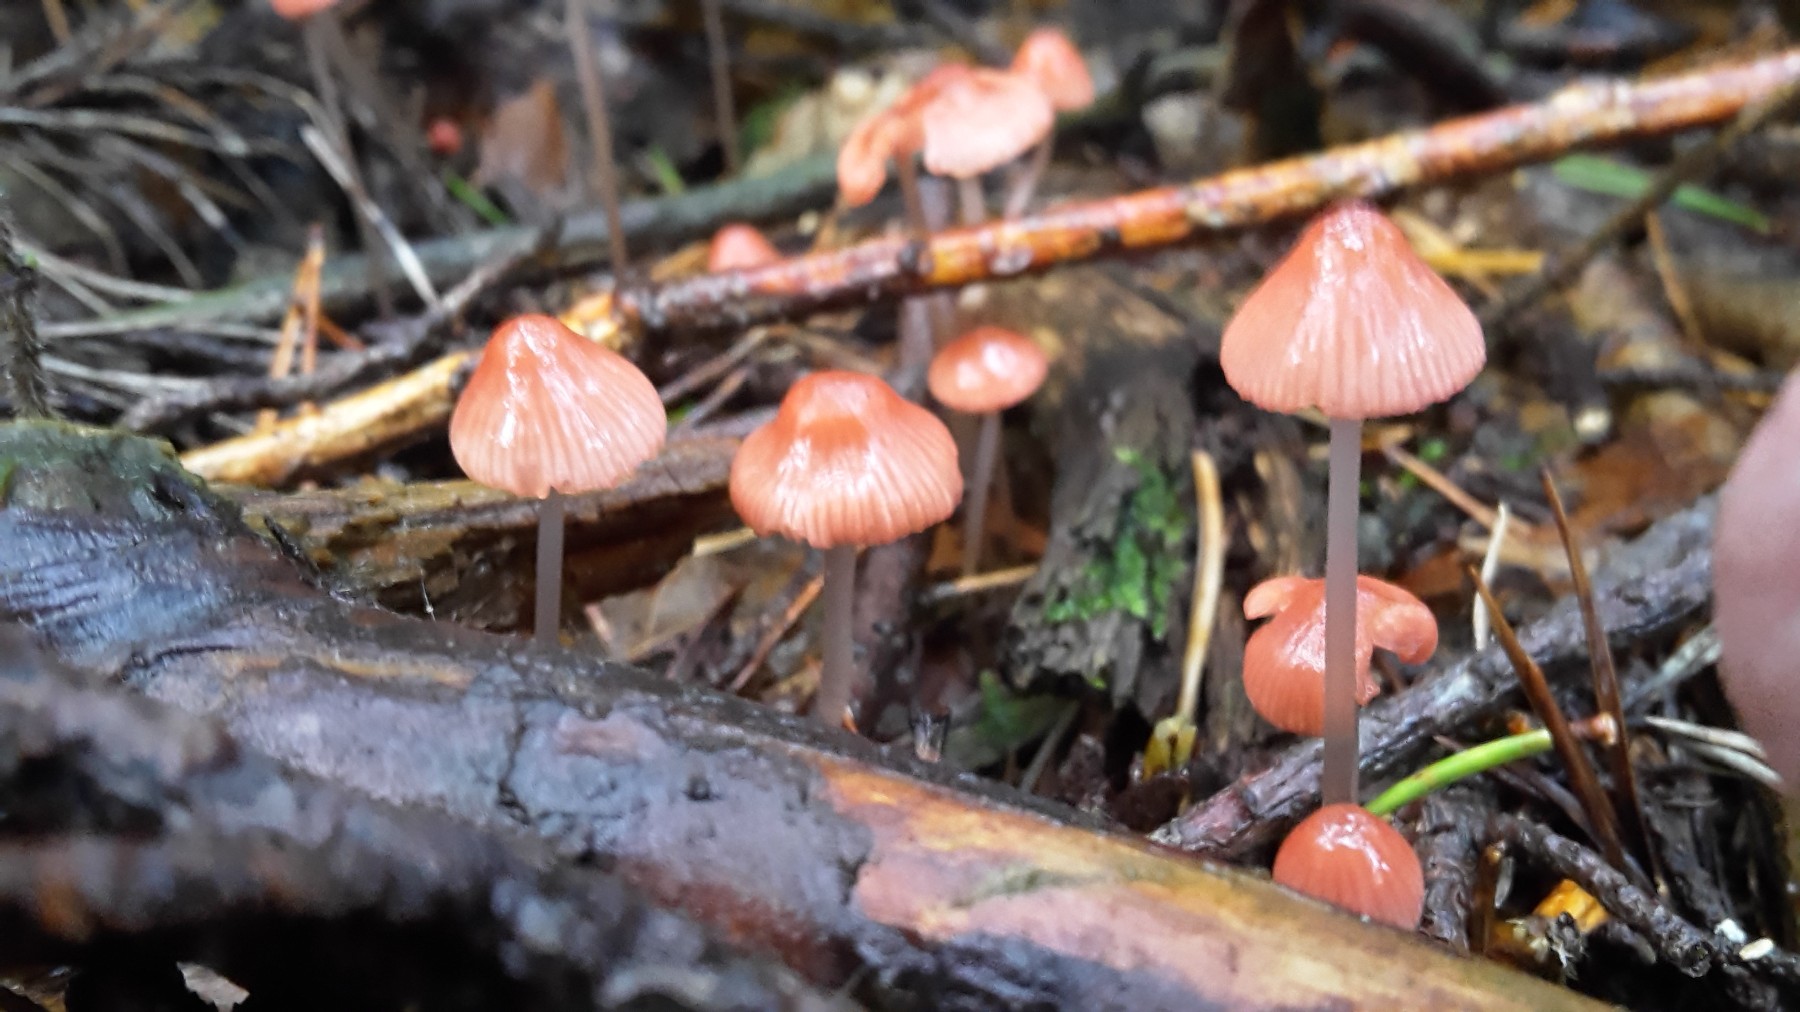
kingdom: Fungi
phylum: Basidiomycota
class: Agaricomycetes
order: Agaricales
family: Mycenaceae
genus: Mycena
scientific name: Mycena rosella
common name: rosenrød huesvamp
